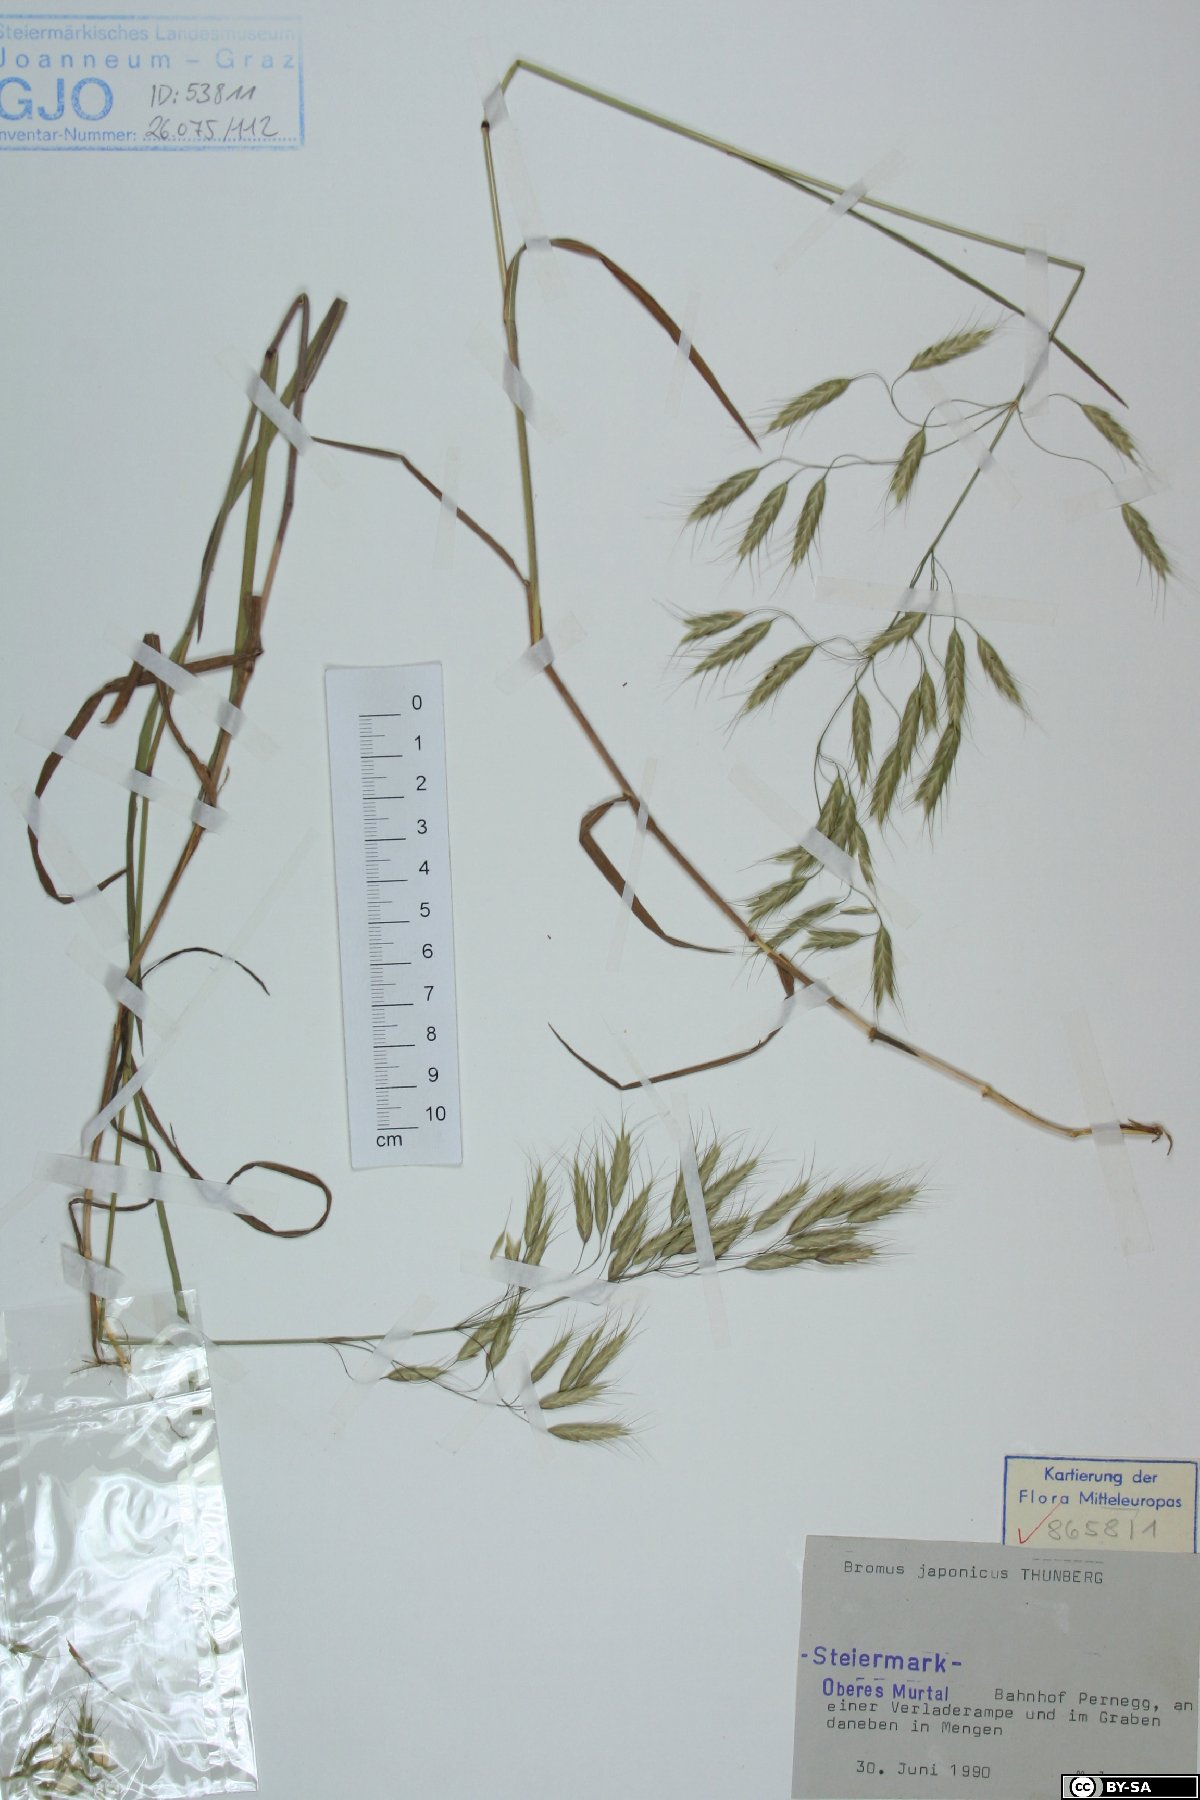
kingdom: Plantae
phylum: Tracheophyta
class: Liliopsida
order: Poales
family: Poaceae
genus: Bromus
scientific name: Bromus japonicus
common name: Japanese brome
